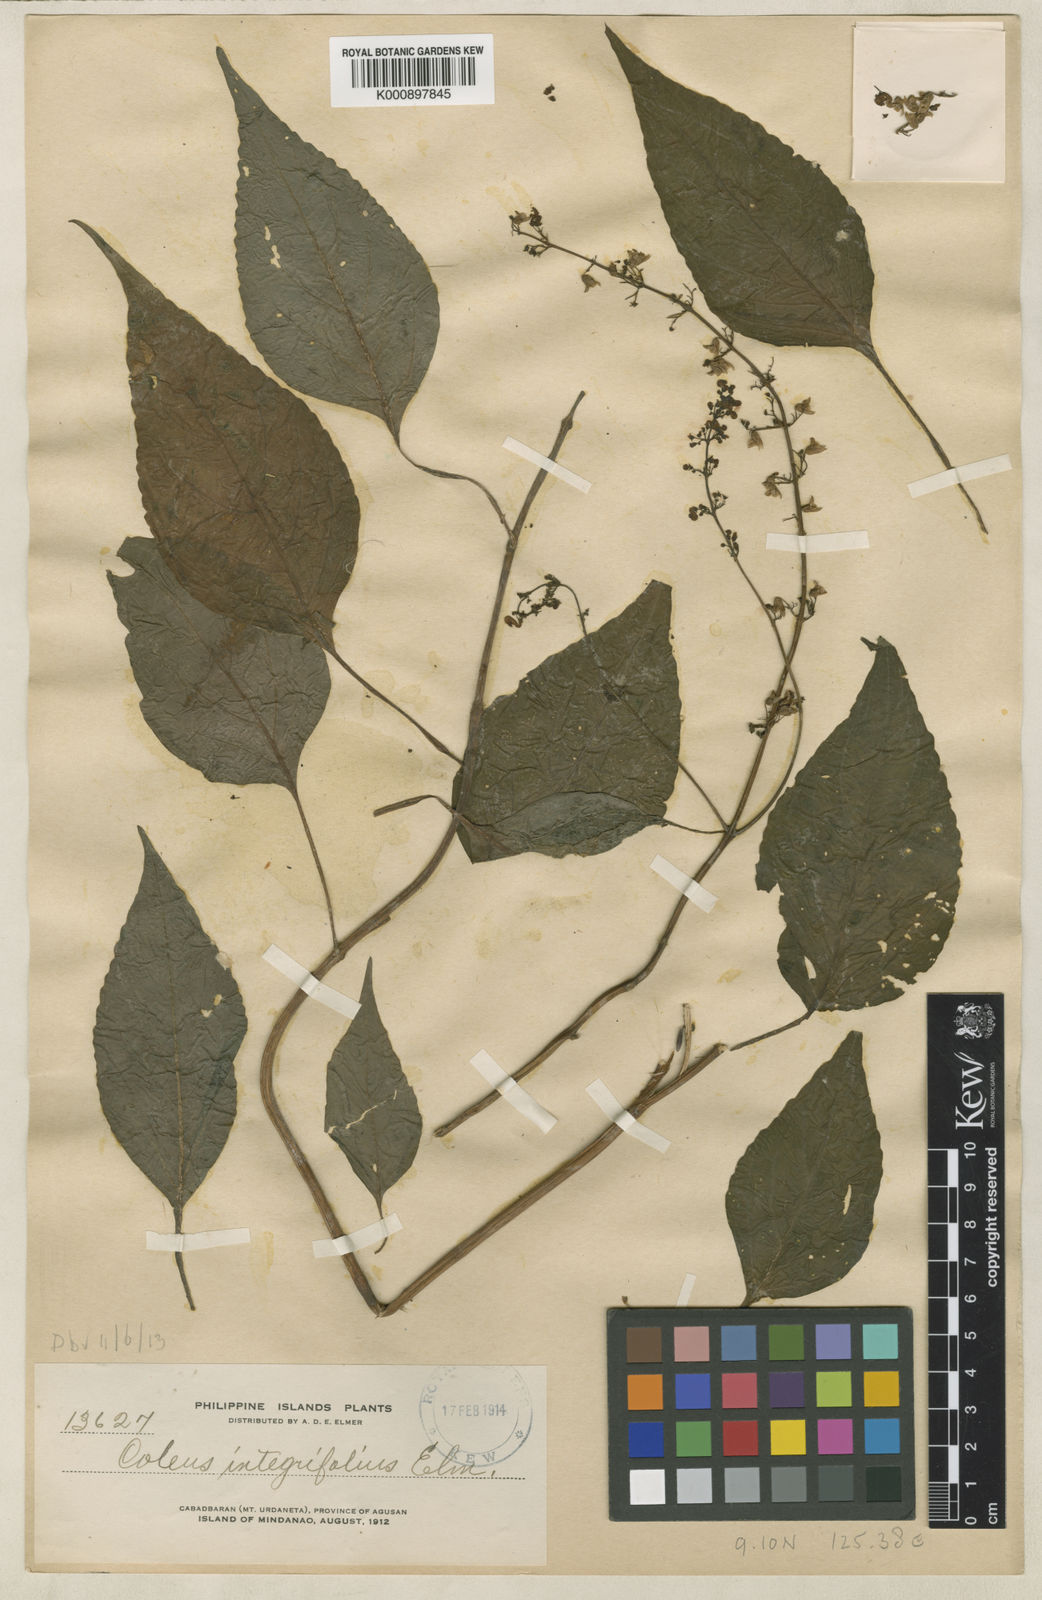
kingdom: Plantae
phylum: Tracheophyta
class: Magnoliopsida
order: Lamiales
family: Lamiaceae
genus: Coleus
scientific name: Coleus scutellarioides
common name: Coleus
